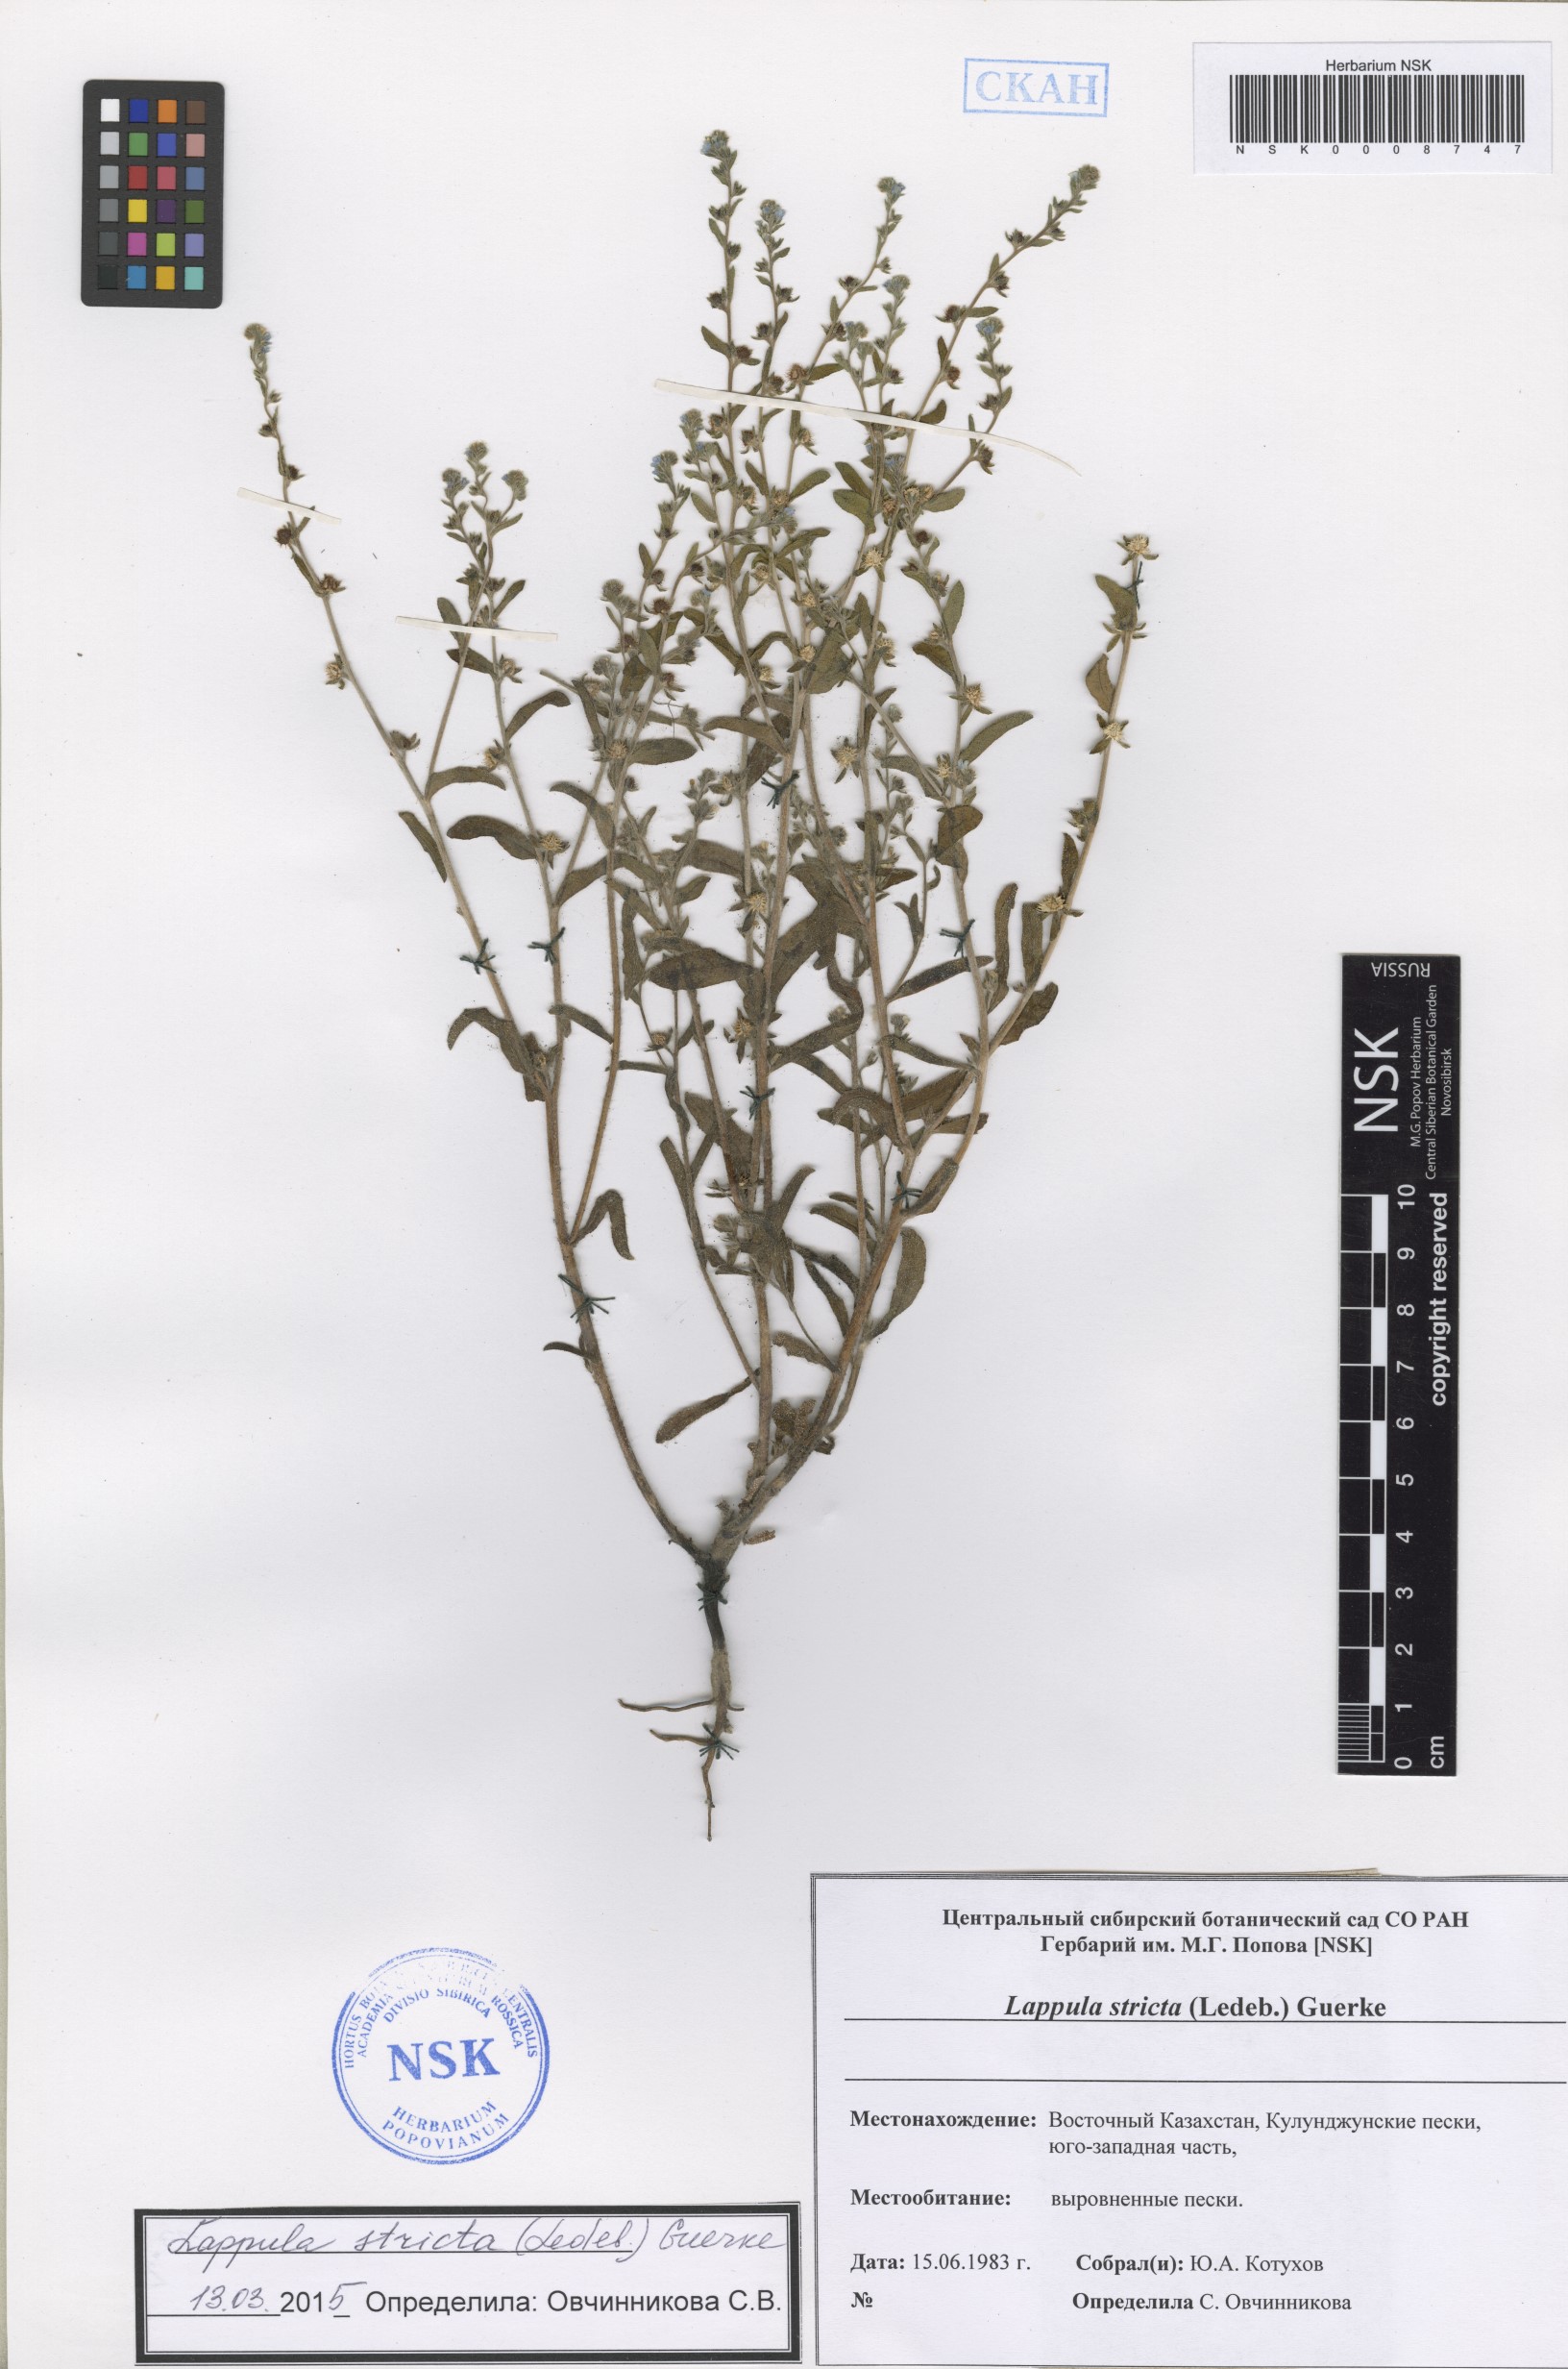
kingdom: Plantae
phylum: Tracheophyta
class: Magnoliopsida
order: Boraginales
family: Boraginaceae
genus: Lappula
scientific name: Lappula stricta
